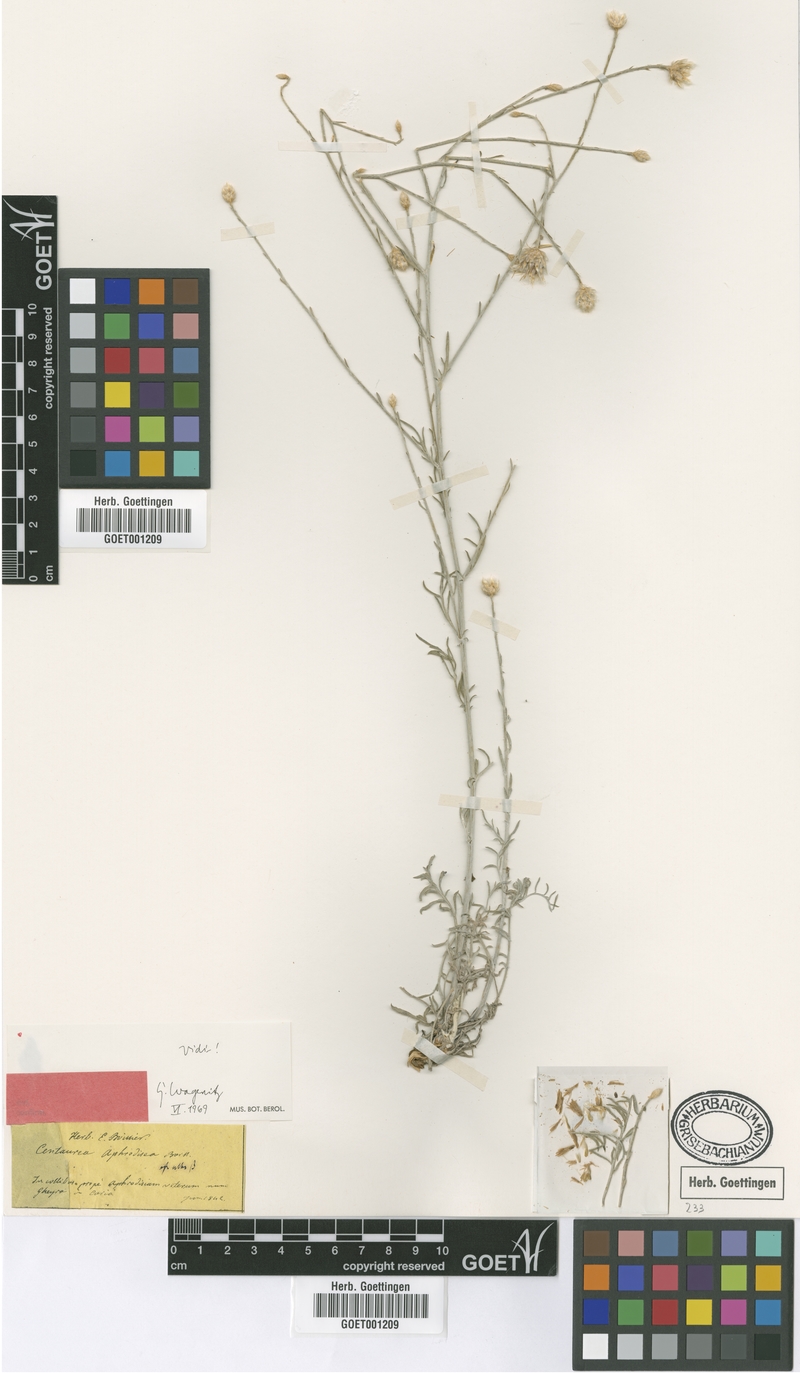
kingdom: Plantae
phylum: Tracheophyta
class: Magnoliopsida
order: Asterales
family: Asteraceae
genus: Centaurea
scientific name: Centaurea aphrodisea
